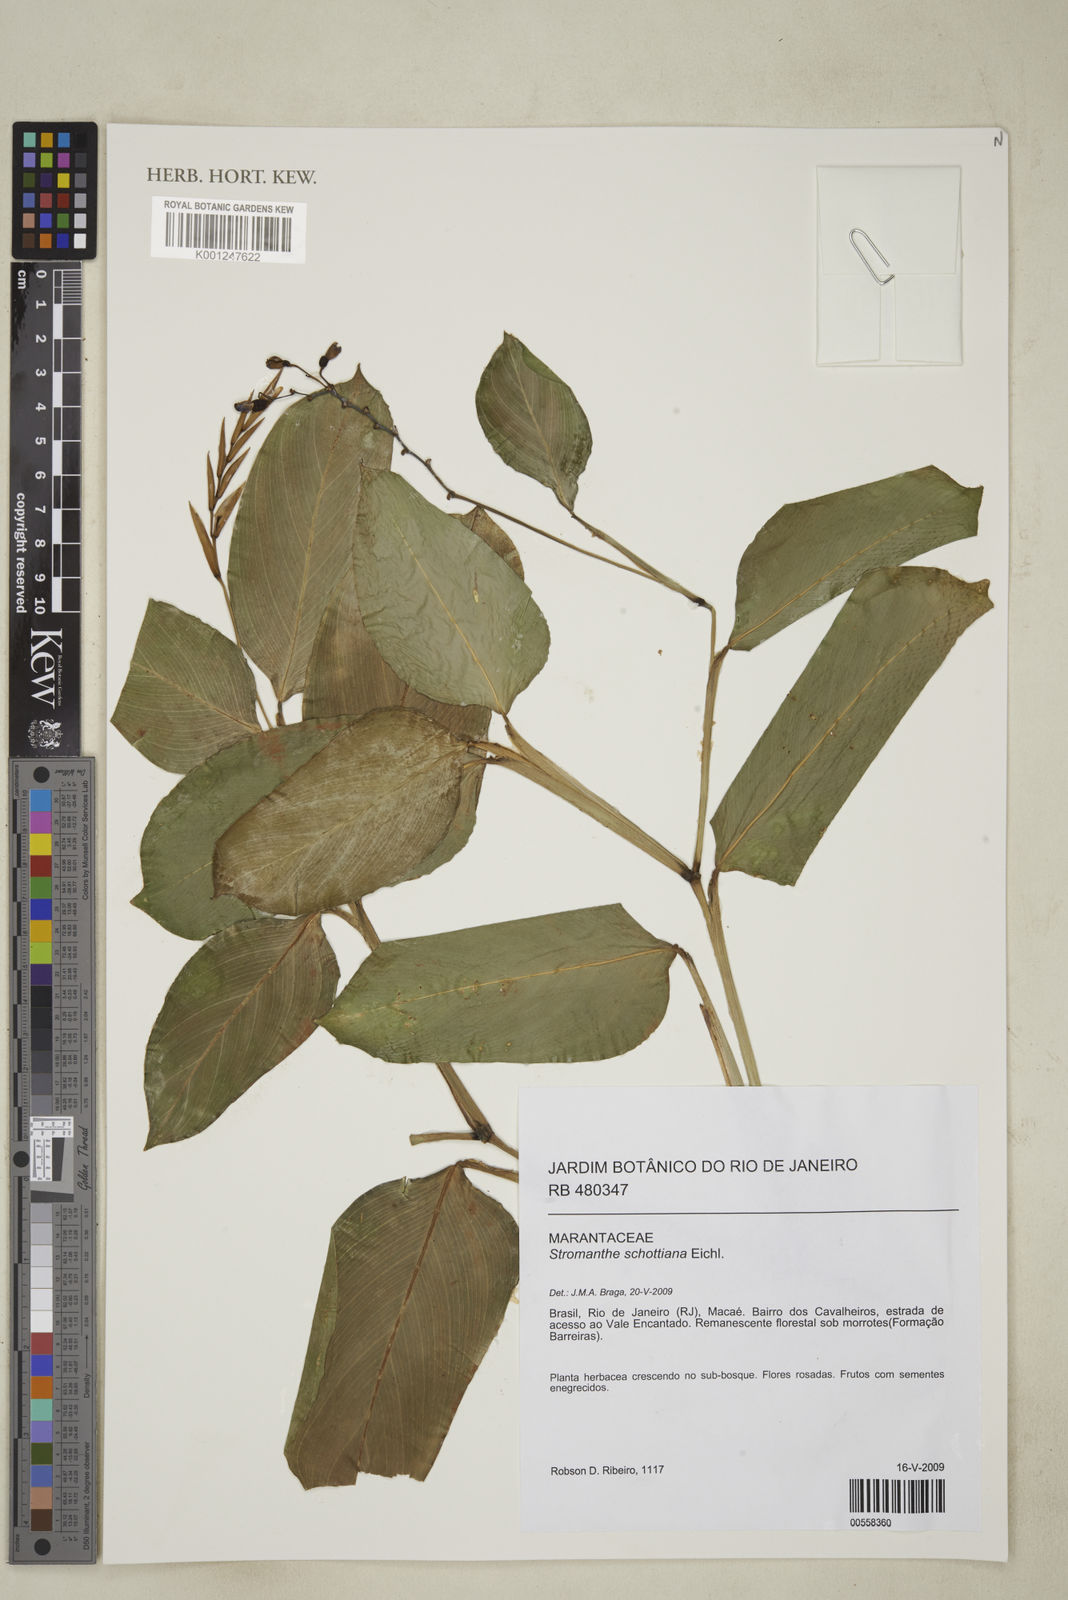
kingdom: Plantae
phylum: Tracheophyta
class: Liliopsida
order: Zingiberales
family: Marantaceae
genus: Stromanthe
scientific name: Stromanthe schottiana
